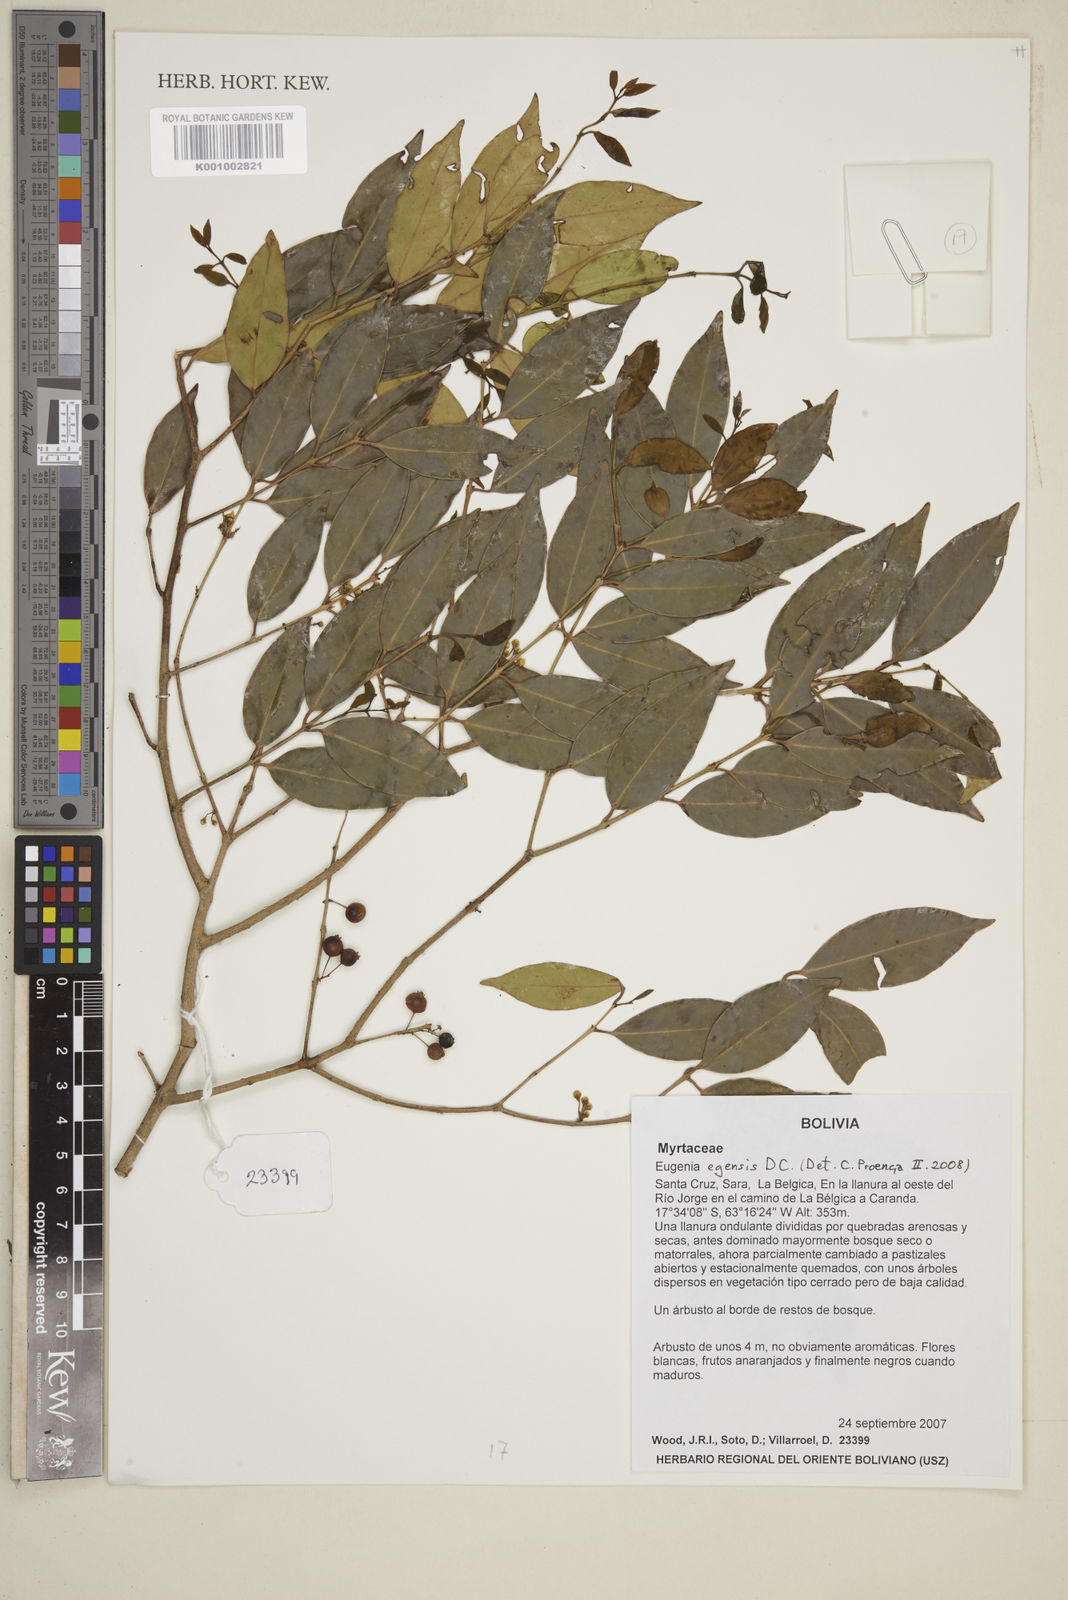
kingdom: Plantae
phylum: Tracheophyta
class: Magnoliopsida
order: Myrtales
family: Myrtaceae
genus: Eugenia
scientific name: Eugenia egensis
